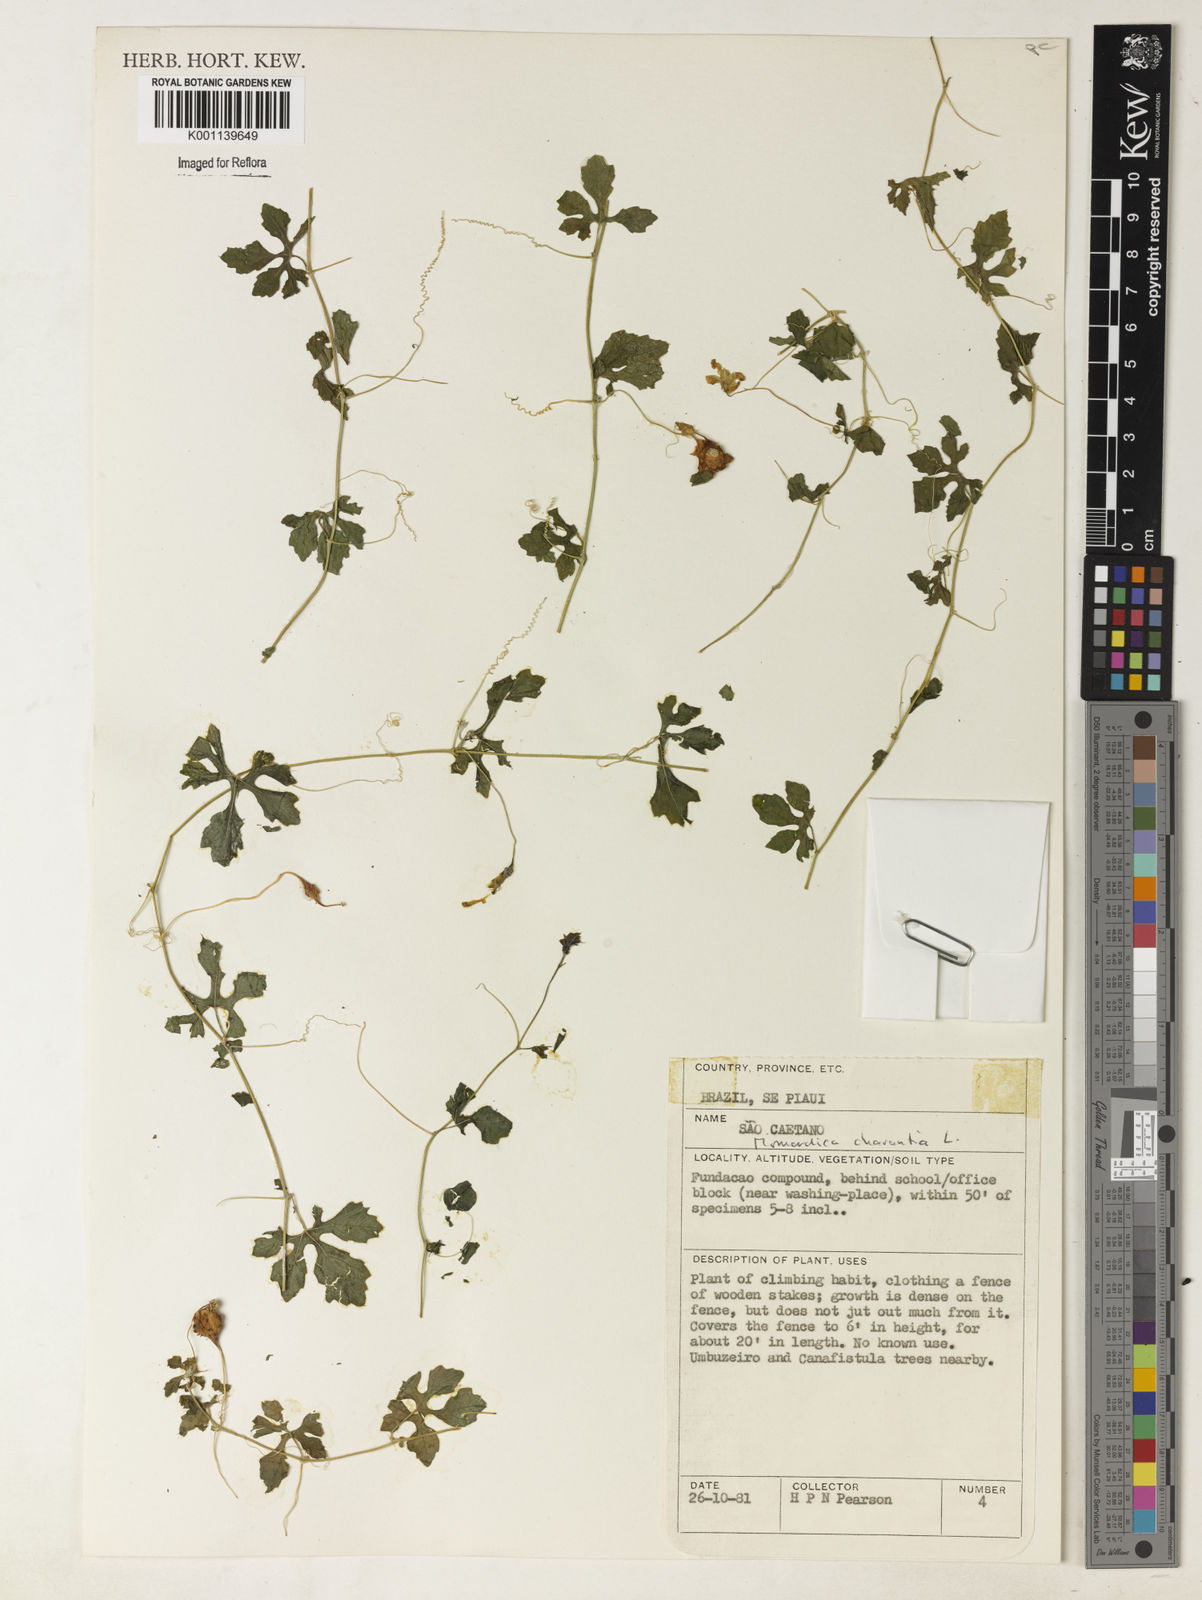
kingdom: Plantae
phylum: Tracheophyta
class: Magnoliopsida
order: Cucurbitales
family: Cucurbitaceae
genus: Momordica
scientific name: Momordica charantia
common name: Balsampear
